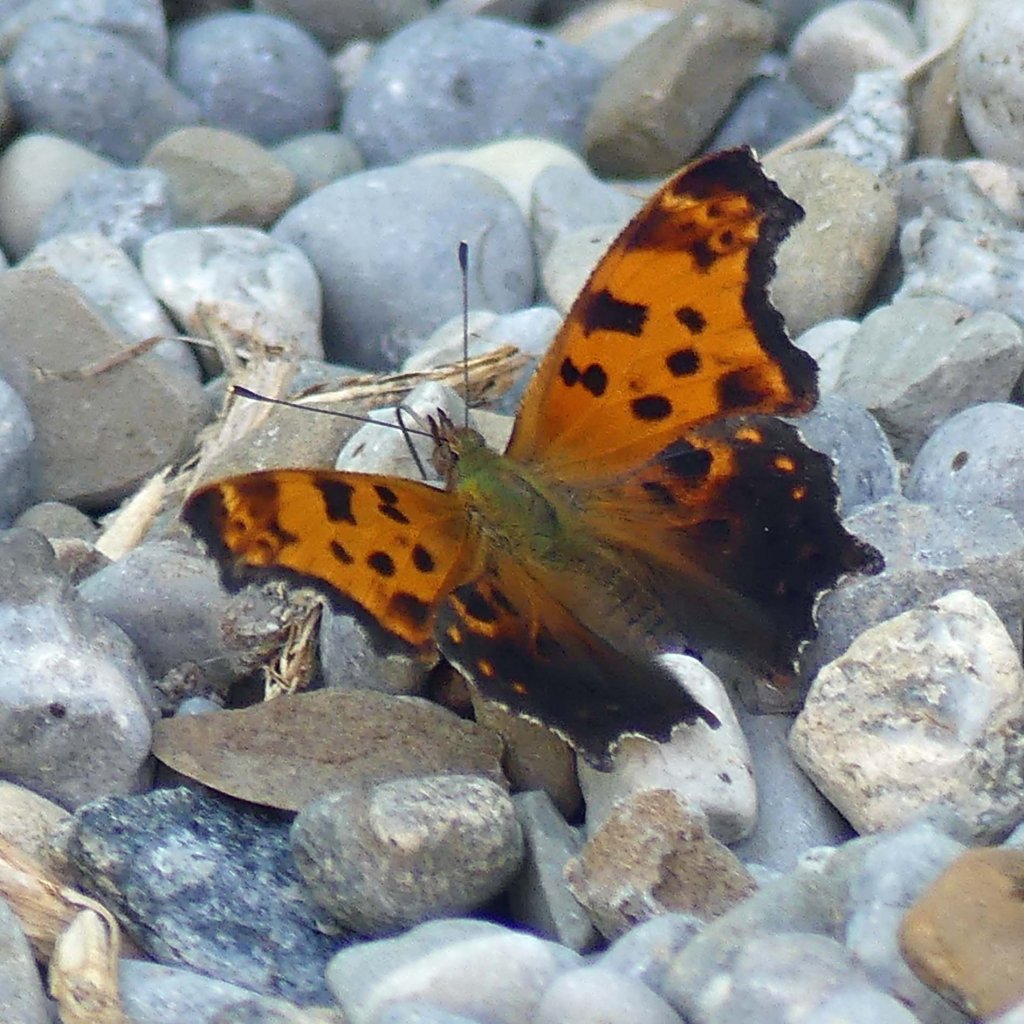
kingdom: Animalia
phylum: Arthropoda
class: Insecta
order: Lepidoptera
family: Nymphalidae
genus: Polygonia
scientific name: Polygonia comma
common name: Eastern Comma
